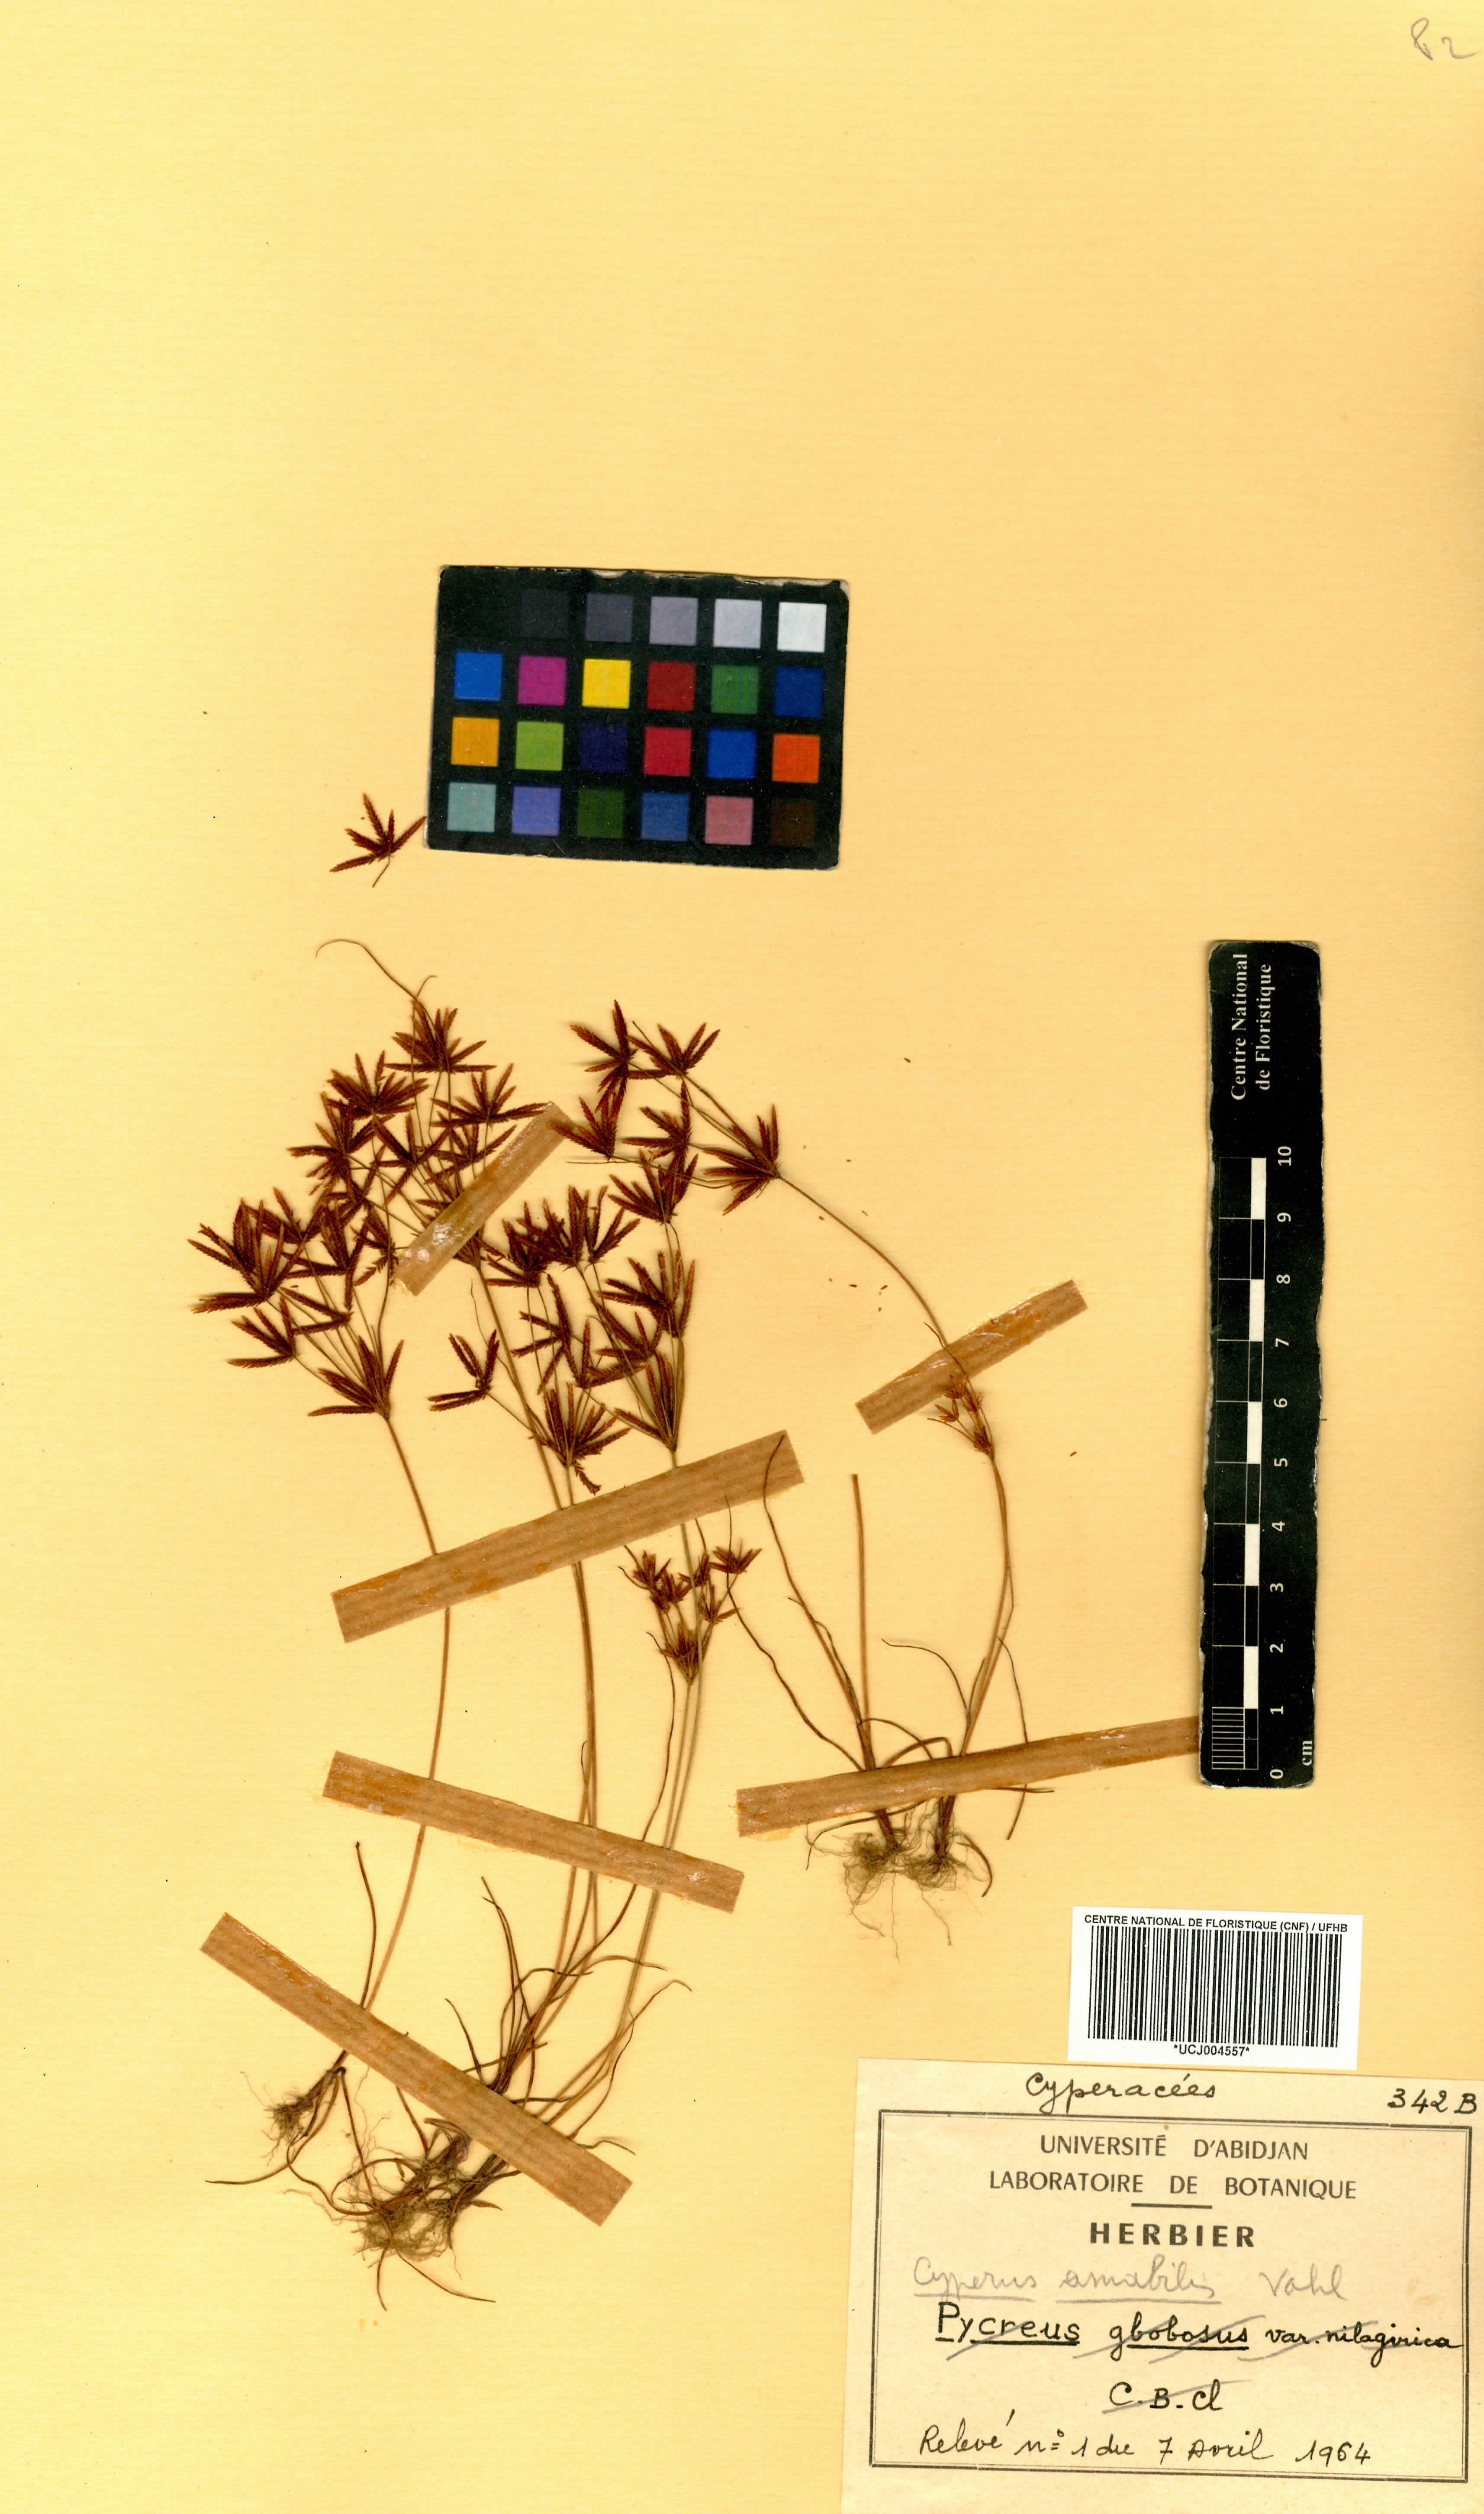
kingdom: Plantae
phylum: Tracheophyta
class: Liliopsida
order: Poales
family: Cyperaceae
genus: Cyperus
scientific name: Cyperus amabilis
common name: Foothill flat sedge
